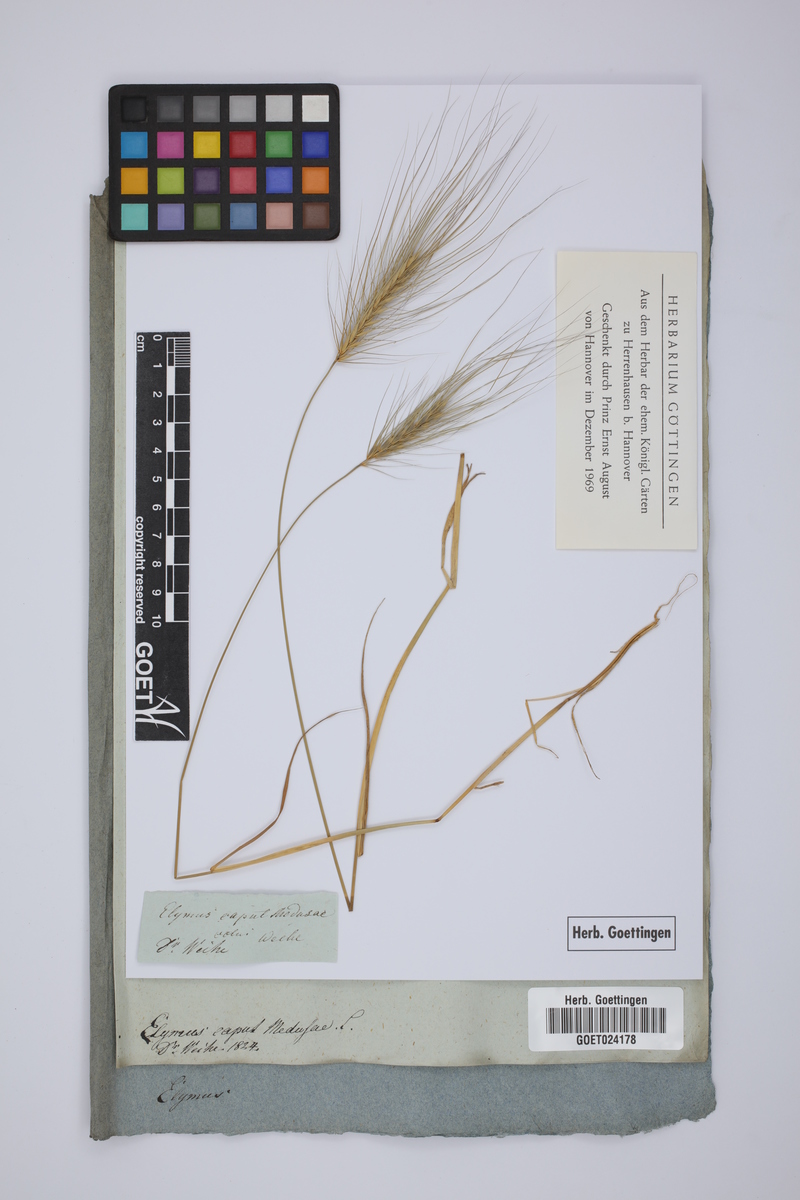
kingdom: Plantae
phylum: Tracheophyta
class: Liliopsida
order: Poales
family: Poaceae
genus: Taeniatherum
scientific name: Taeniatherum caput-medusae
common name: Medusahead
